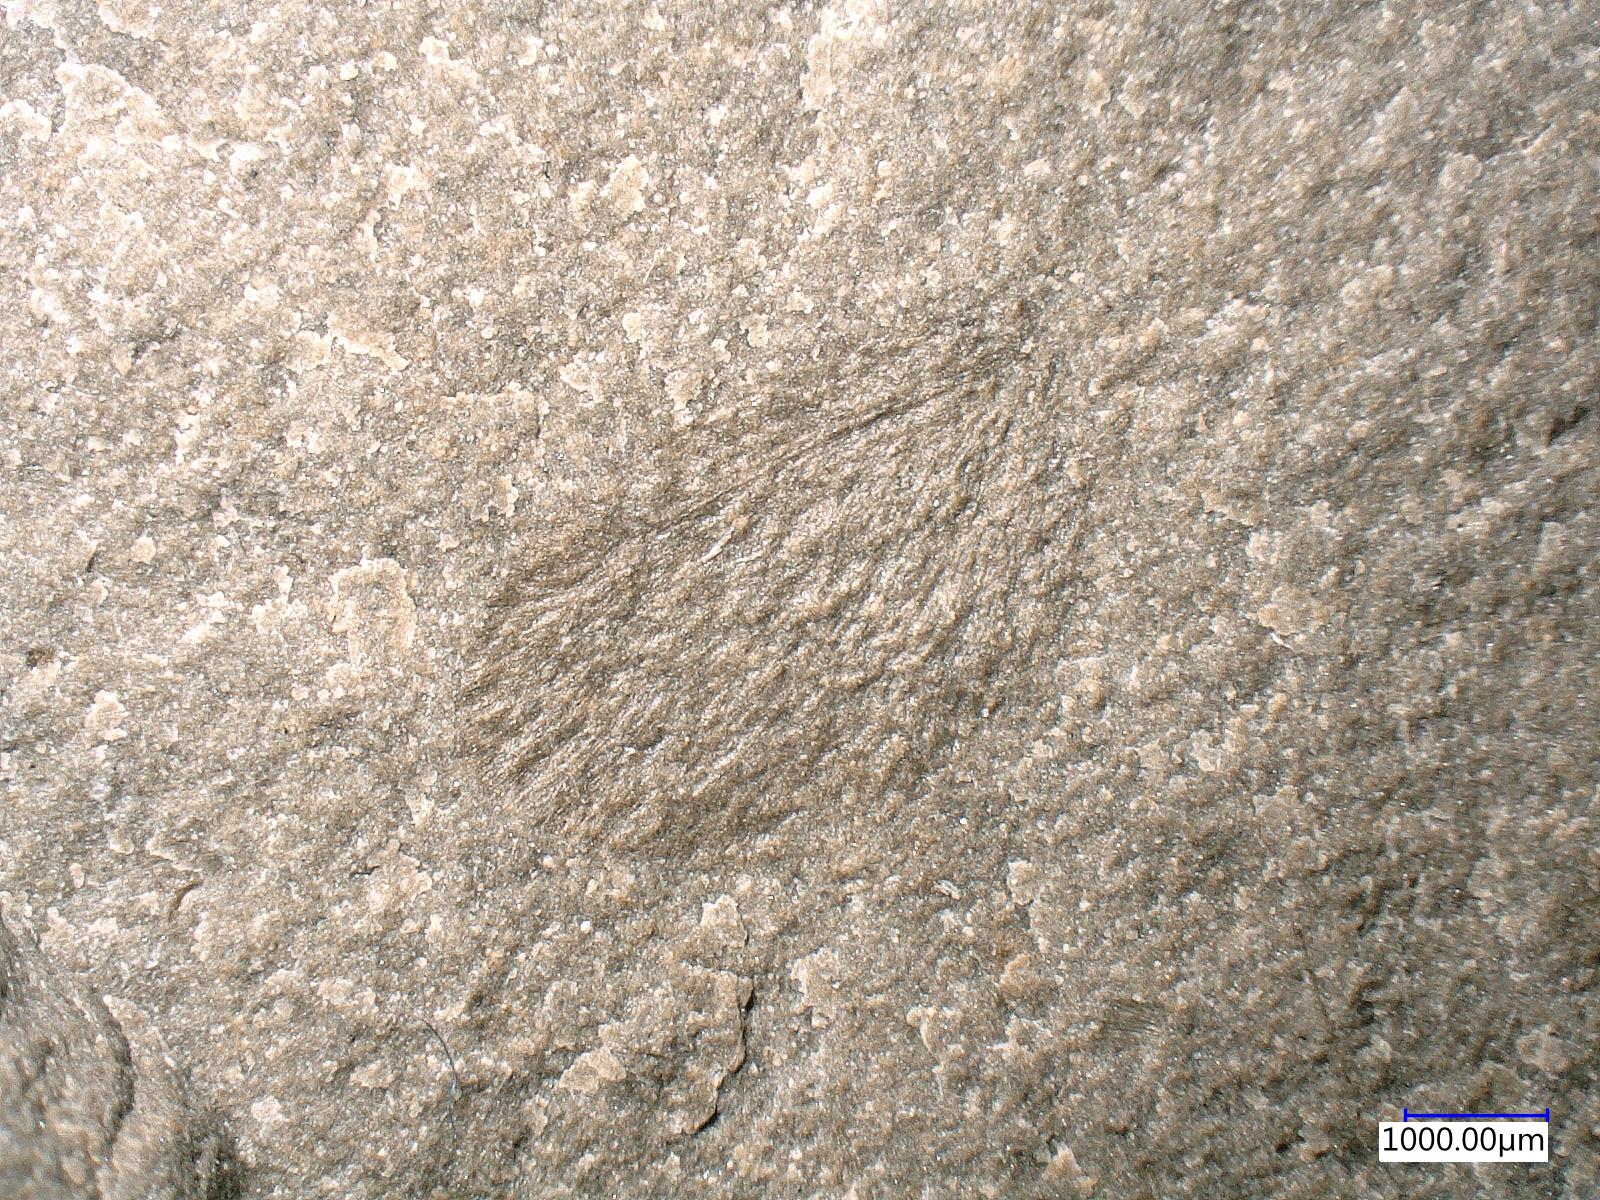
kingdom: Animalia
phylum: Arthropoda
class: Insecta
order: Neuroptera
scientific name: Neuroptera
